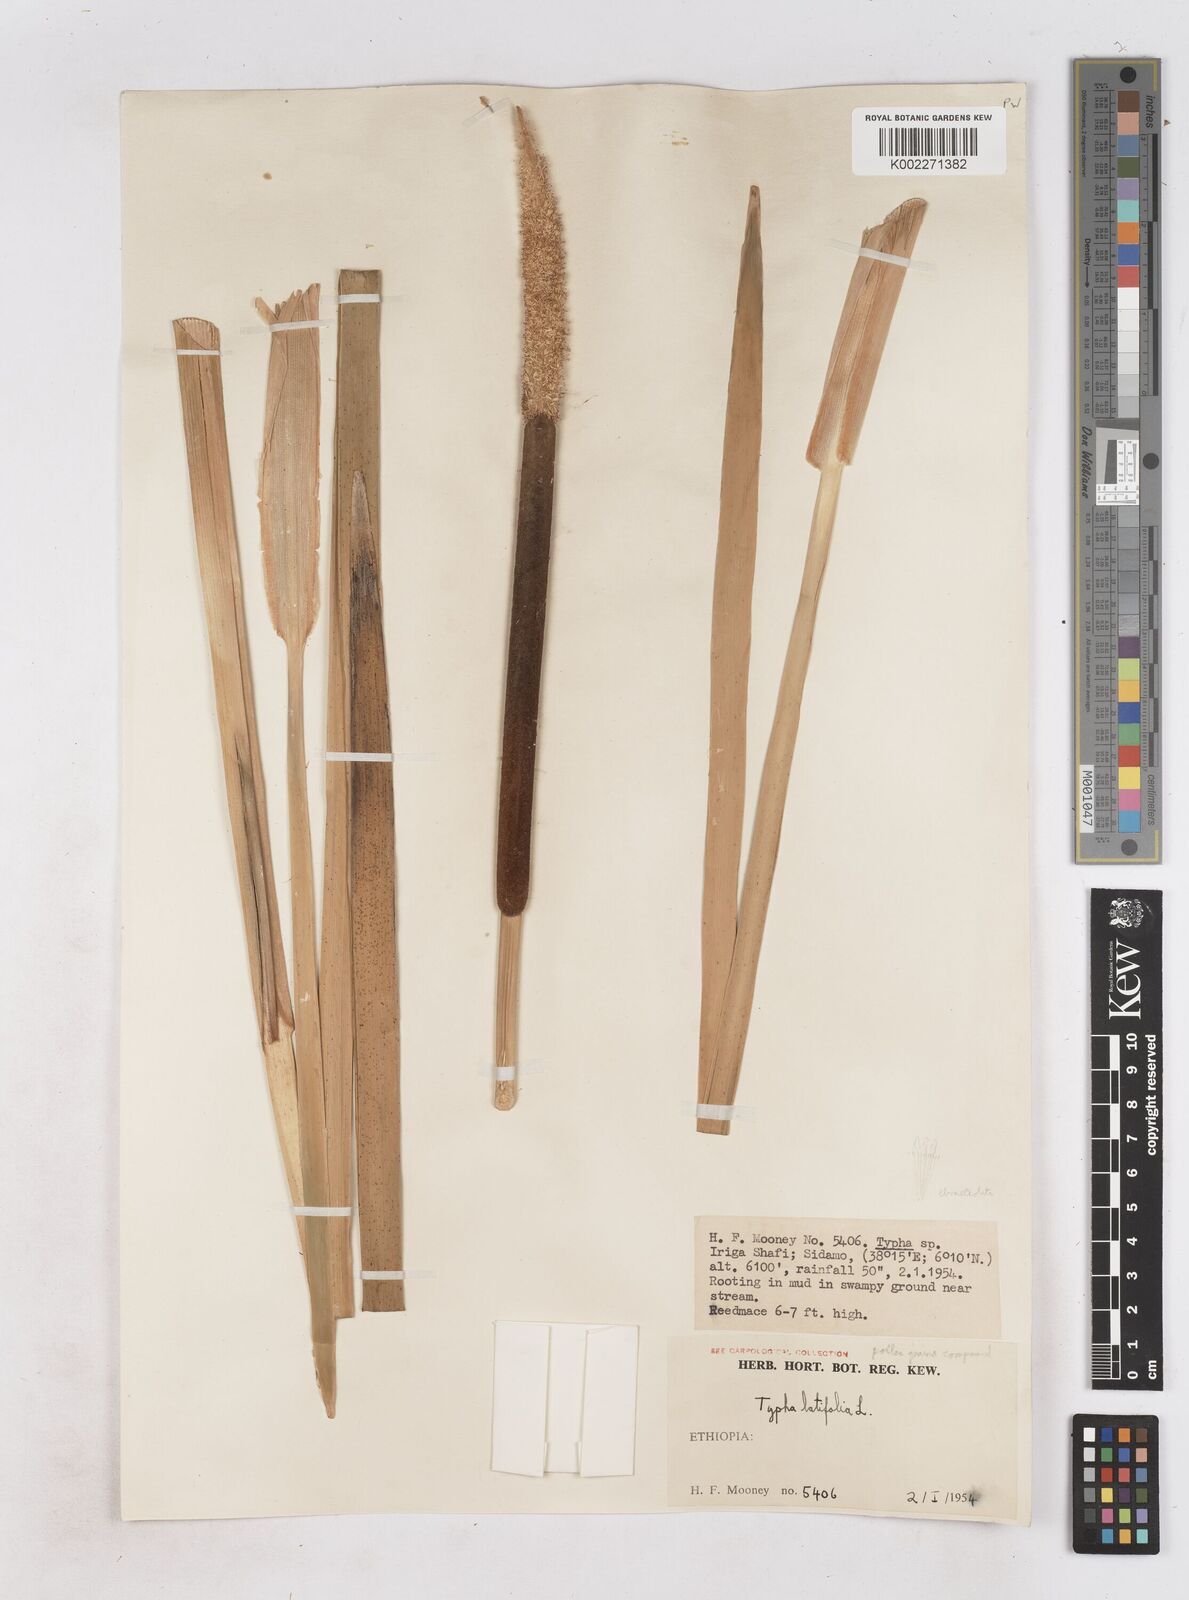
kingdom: Plantae
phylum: Tracheophyta
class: Liliopsida
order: Poales
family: Typhaceae
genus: Typha
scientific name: Typha latifolia
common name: Broadleaf cattail
